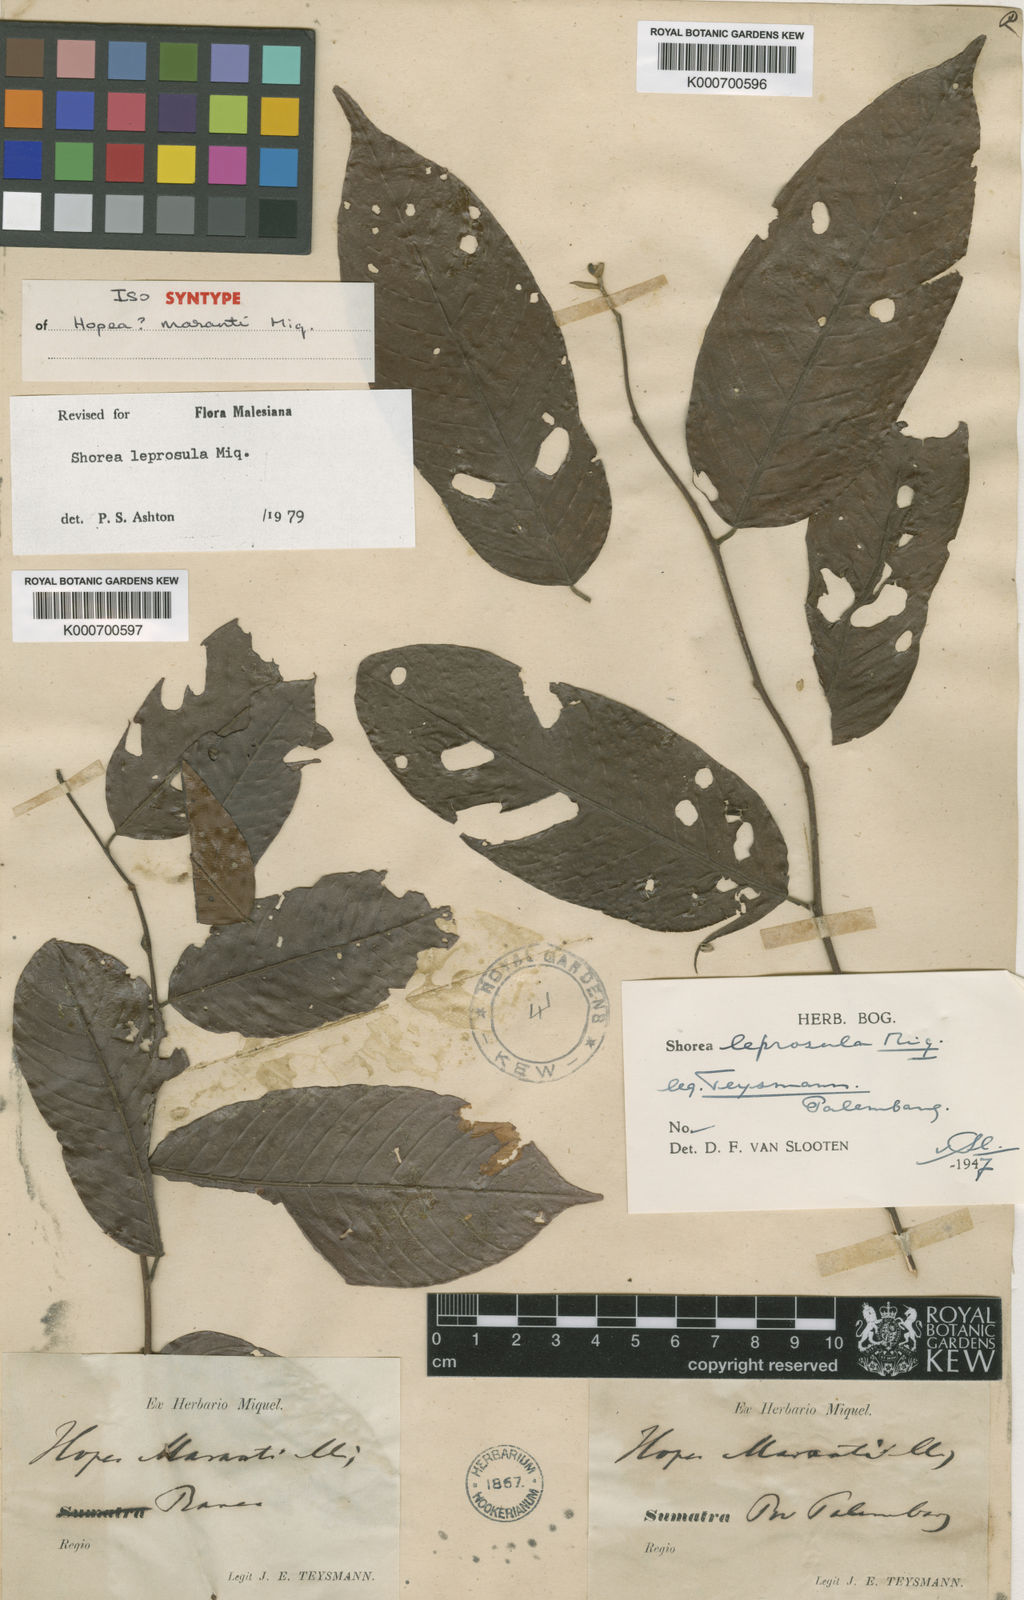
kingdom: Plantae
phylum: Tracheophyta
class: Magnoliopsida
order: Malvales
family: Dipterocarpaceae
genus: Shorea
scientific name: Shorea leprosula
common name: Light red meranti
